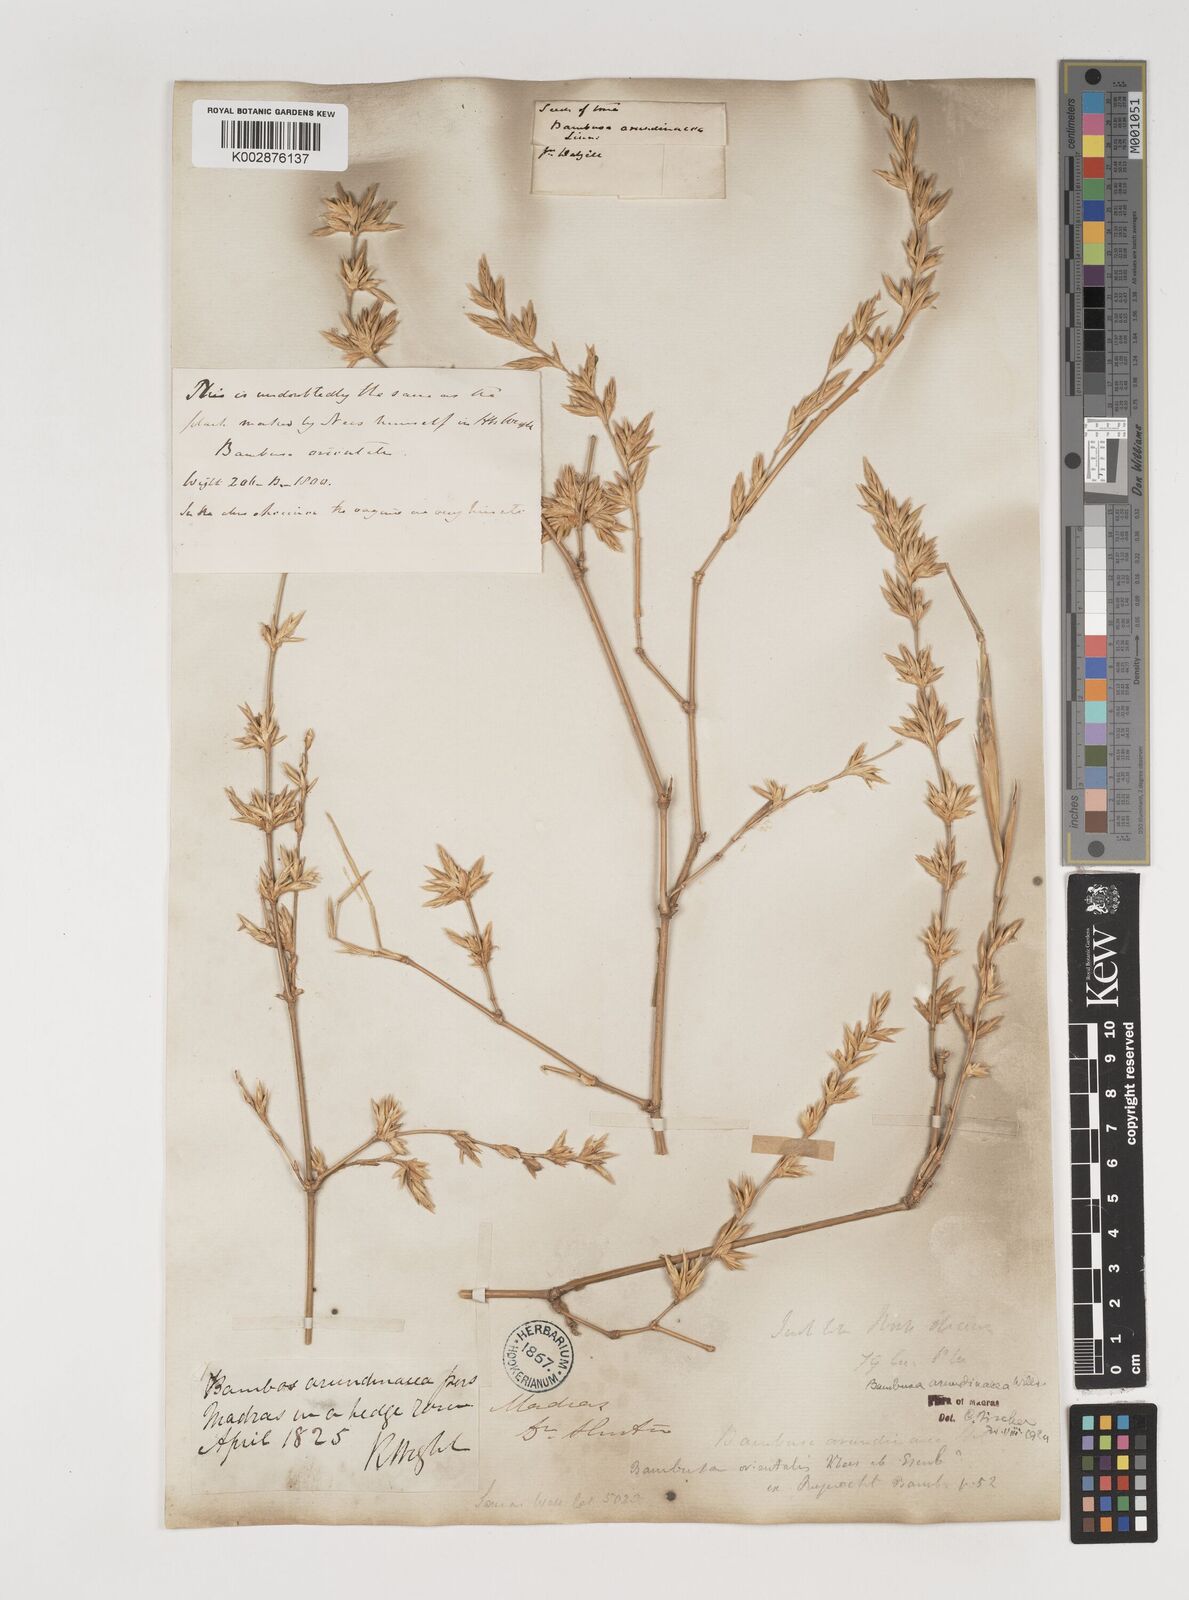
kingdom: Plantae
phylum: Tracheophyta
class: Liliopsida
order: Poales
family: Poaceae
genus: Bambusa
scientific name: Bambusa bambos
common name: Indian thorny bamboo
